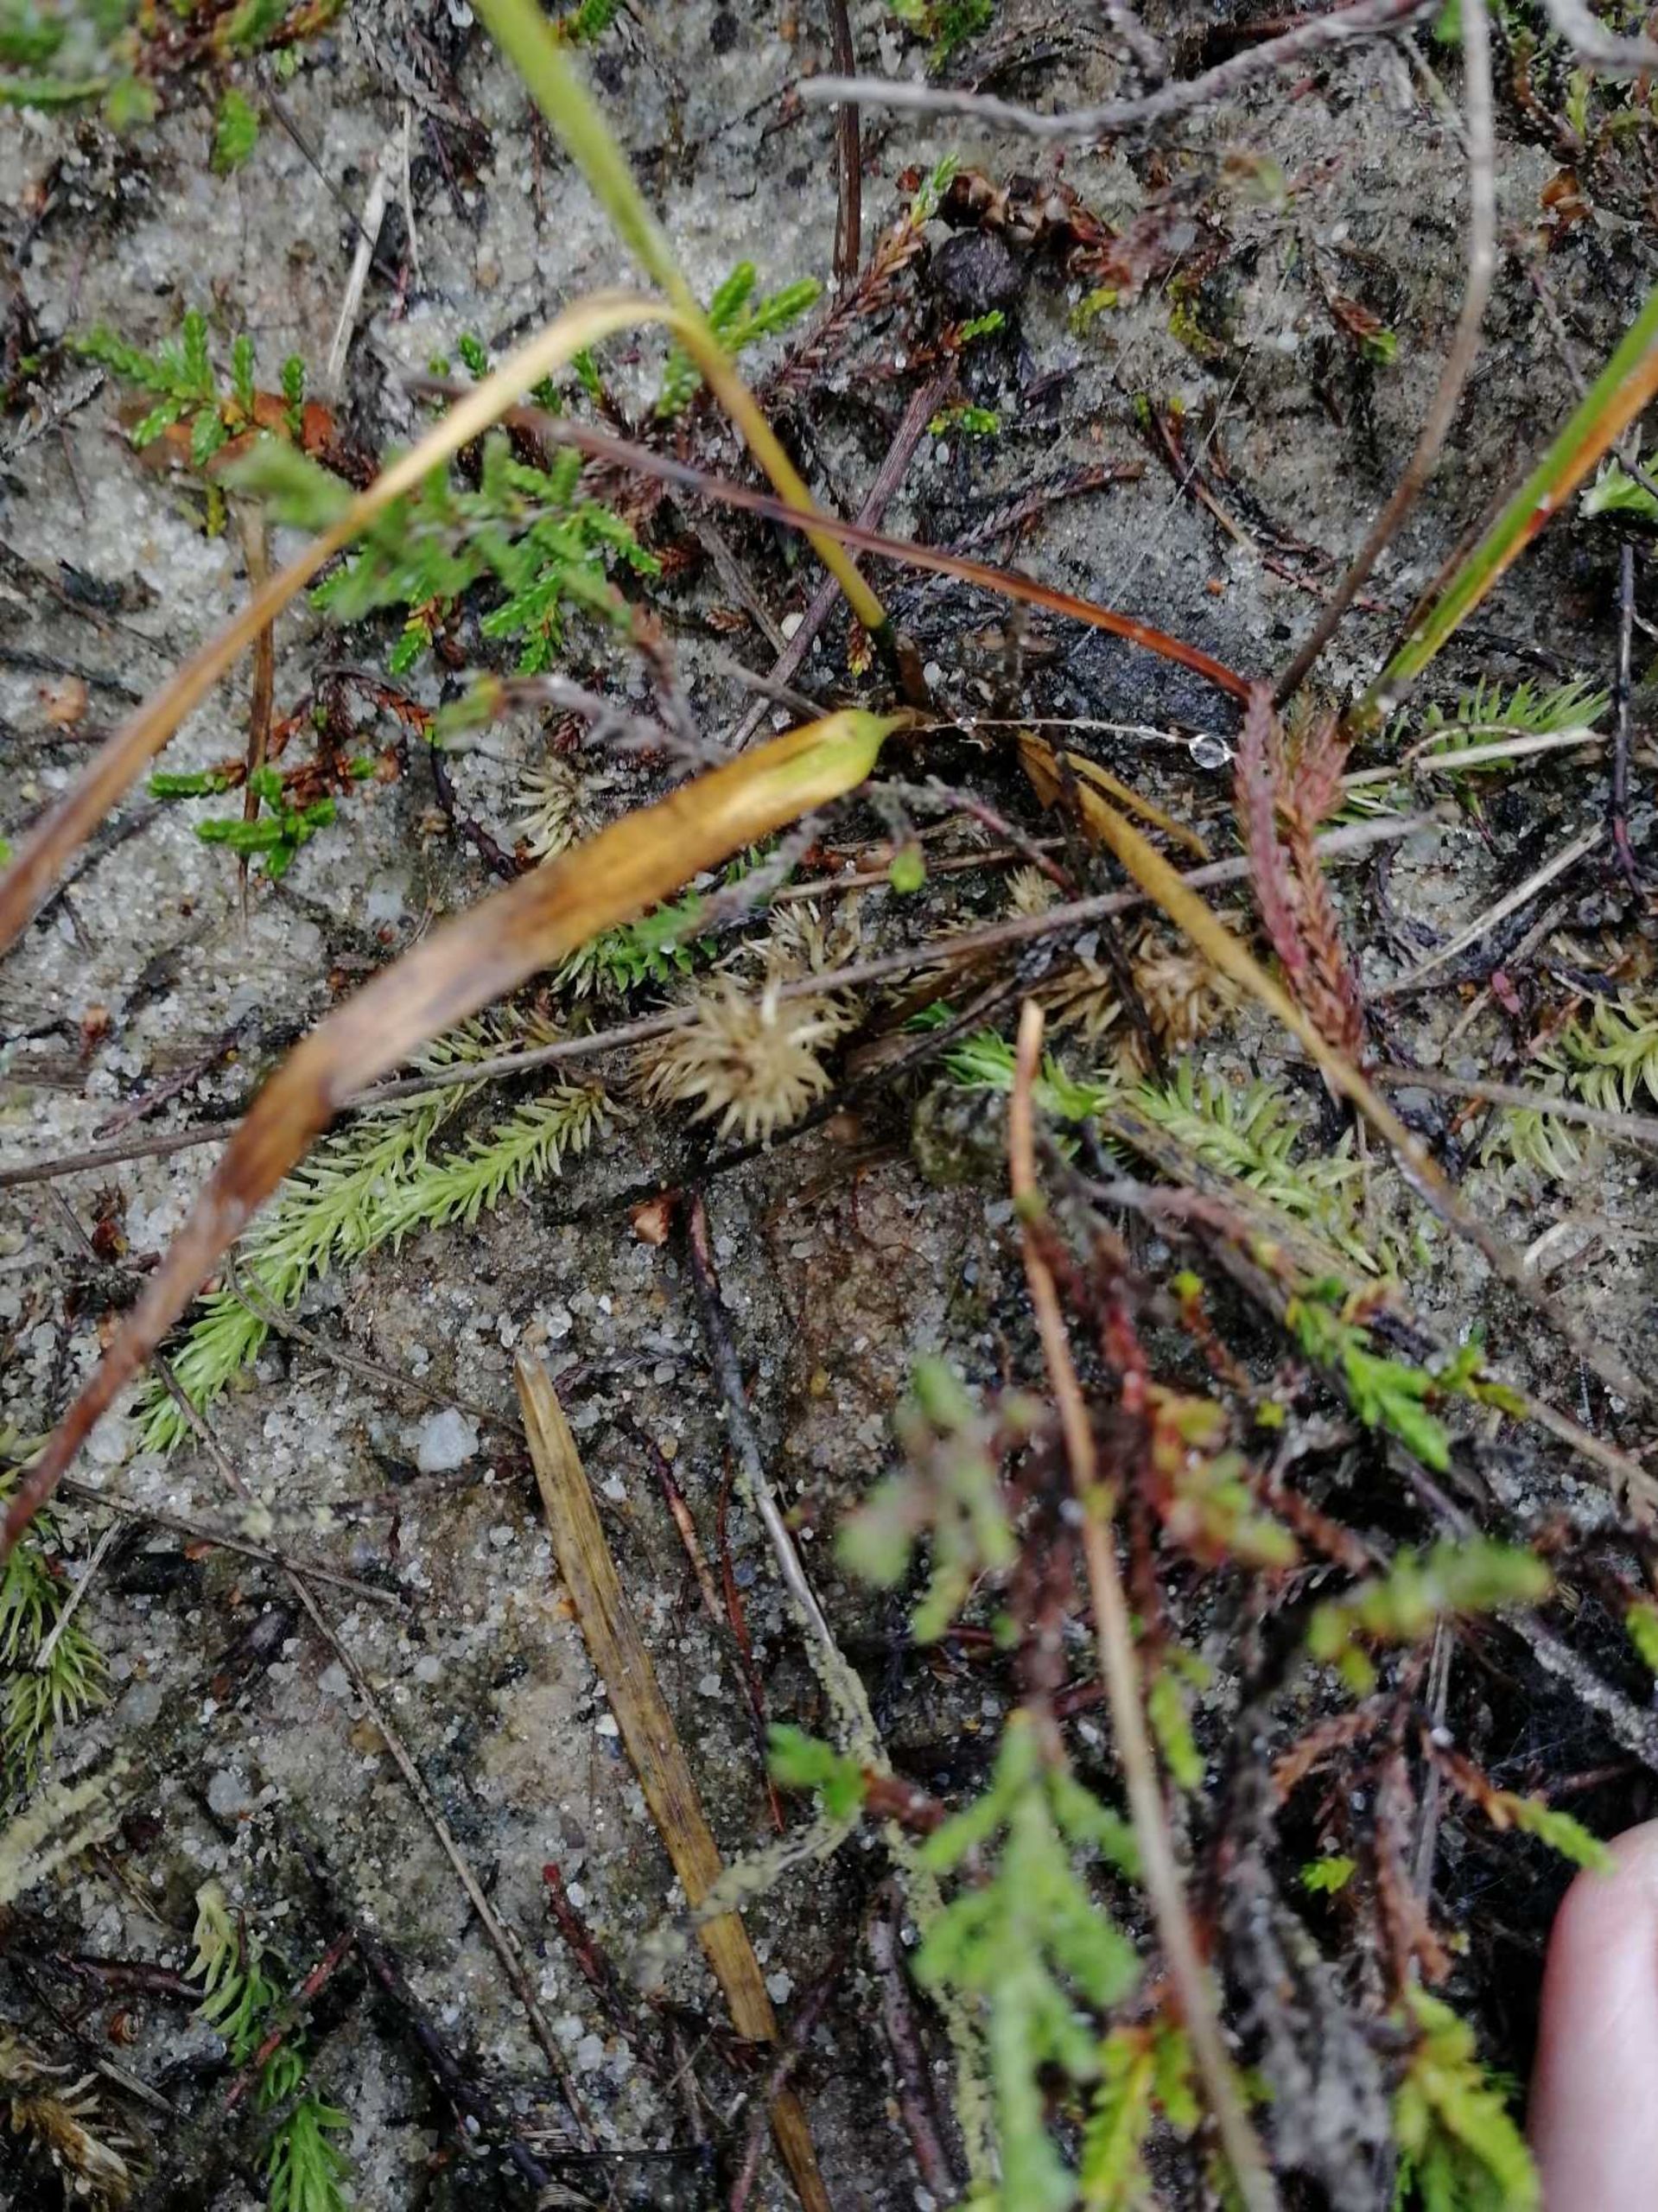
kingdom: Plantae
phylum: Tracheophyta
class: Lycopodiopsida
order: Lycopodiales
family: Lycopodiaceae
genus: Lycopodiella
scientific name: Lycopodiella inundata
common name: Liden ulvefod
